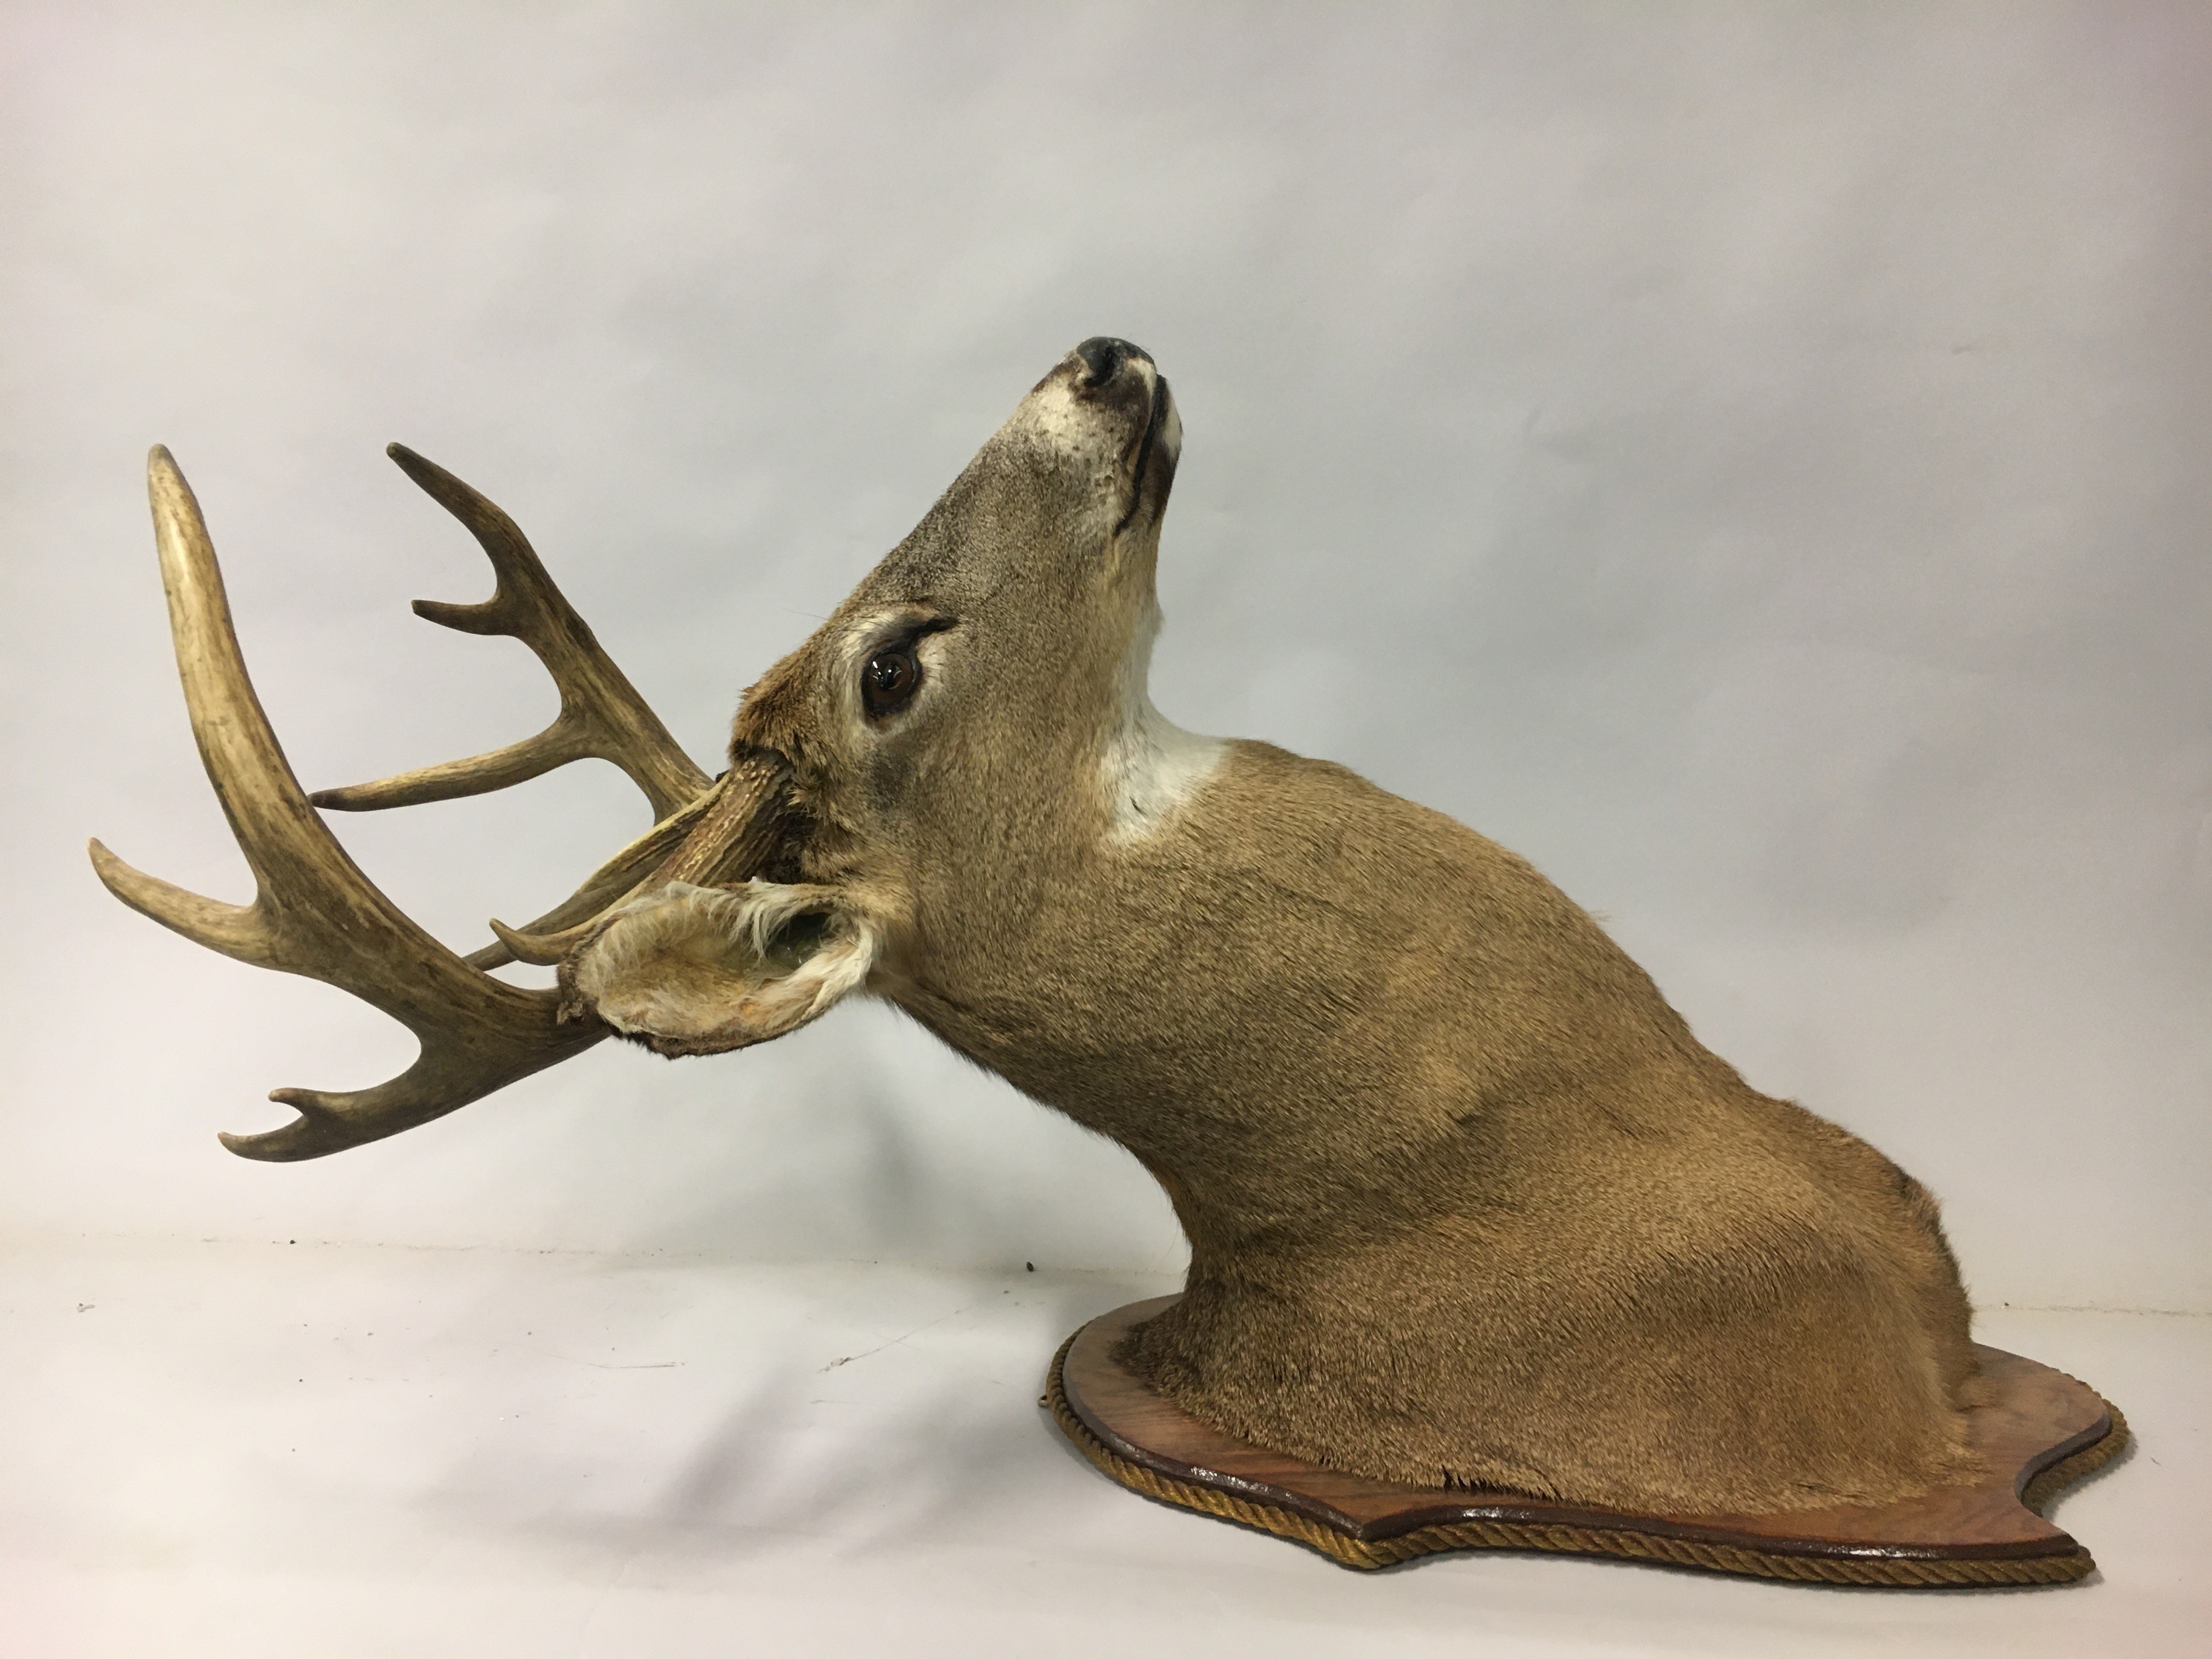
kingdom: Animalia
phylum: Chordata
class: Mammalia
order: Artiodactyla
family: Cervidae
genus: Odocoileus
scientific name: Odocoileus hemionus
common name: Mule deer
